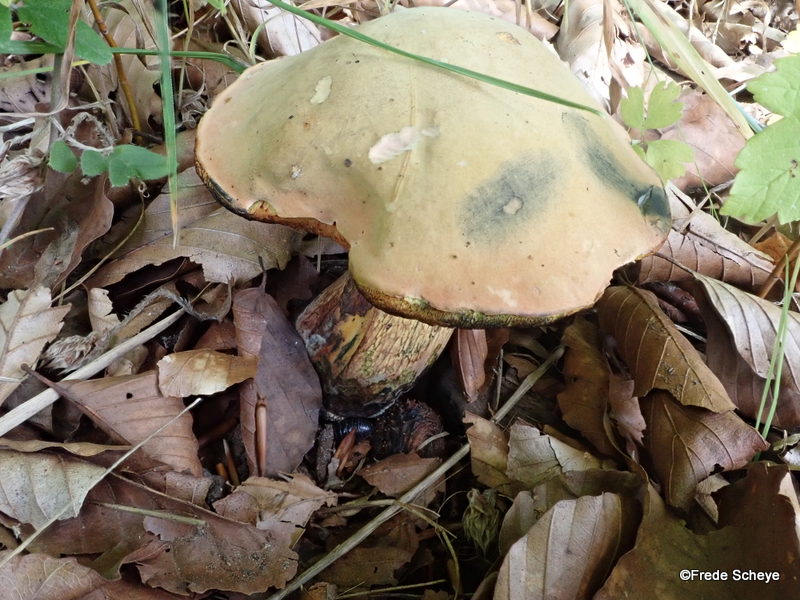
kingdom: Fungi
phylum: Basidiomycota
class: Agaricomycetes
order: Boletales
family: Boletaceae
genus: Suillellus
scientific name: Suillellus luridus
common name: netstokket indigorørhat
